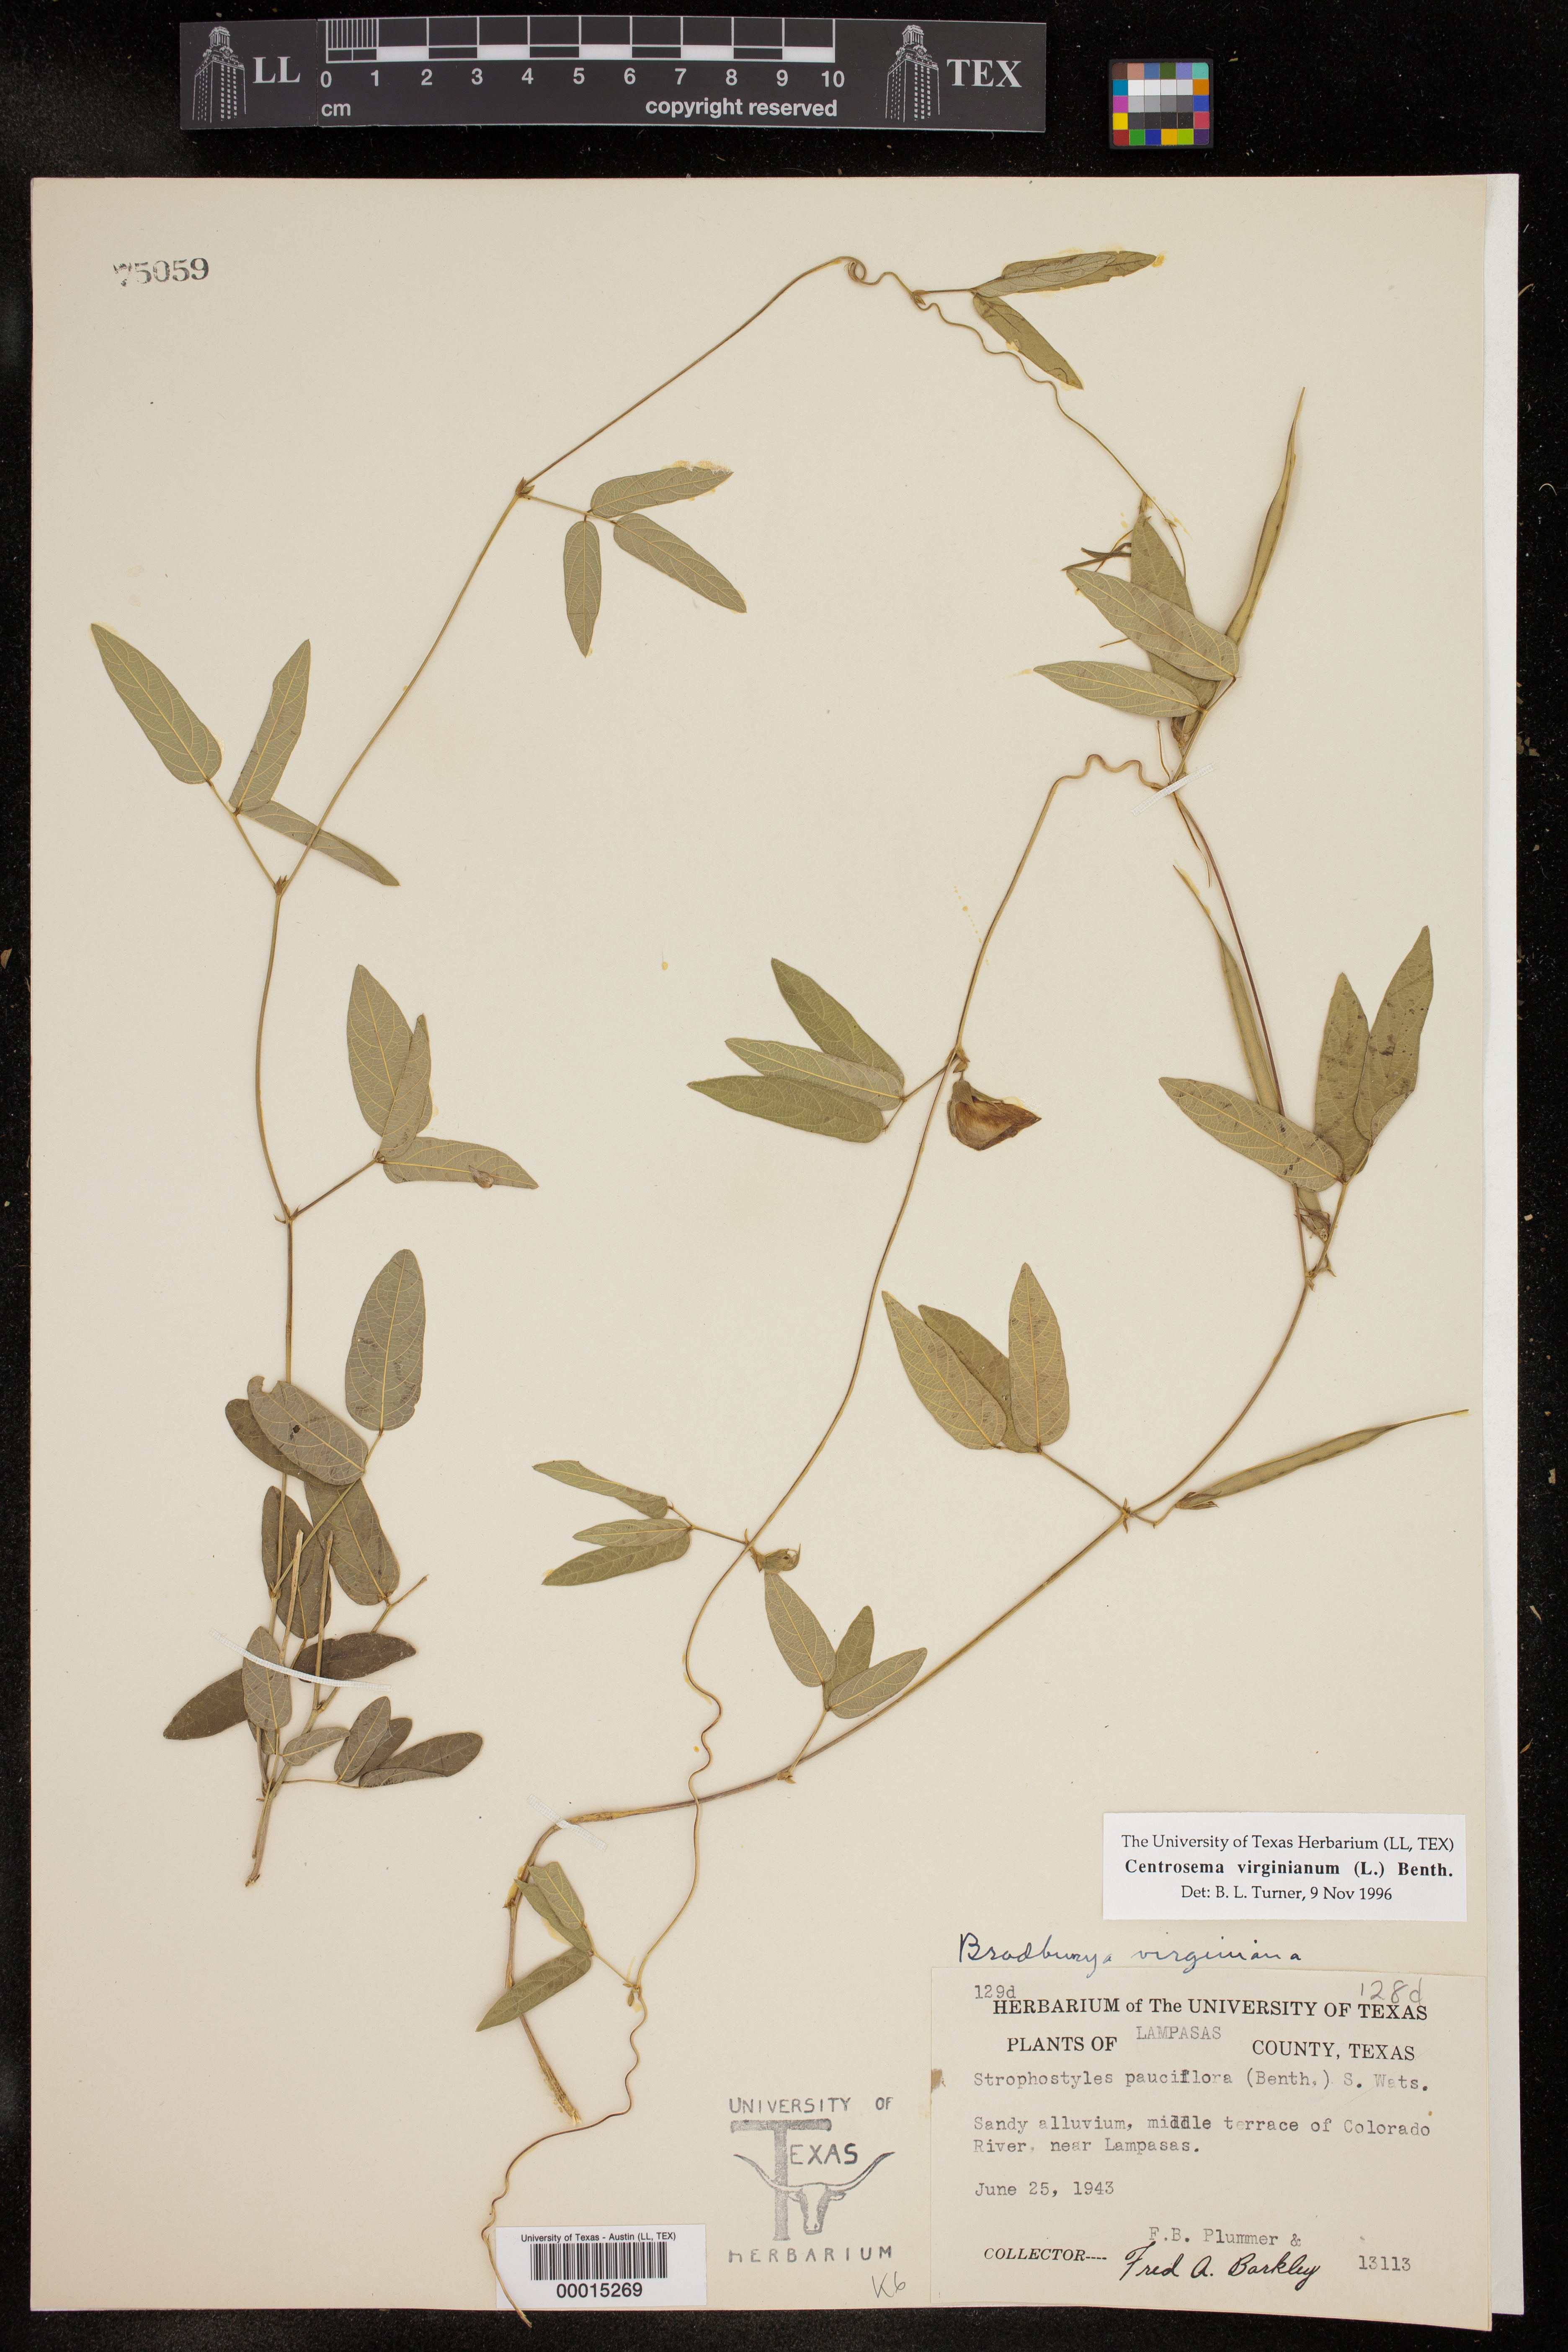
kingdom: Plantae
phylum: Tracheophyta
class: Magnoliopsida
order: Fabales
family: Fabaceae
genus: Centrosema
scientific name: Centrosema virginianum
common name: Butterfly-pea
